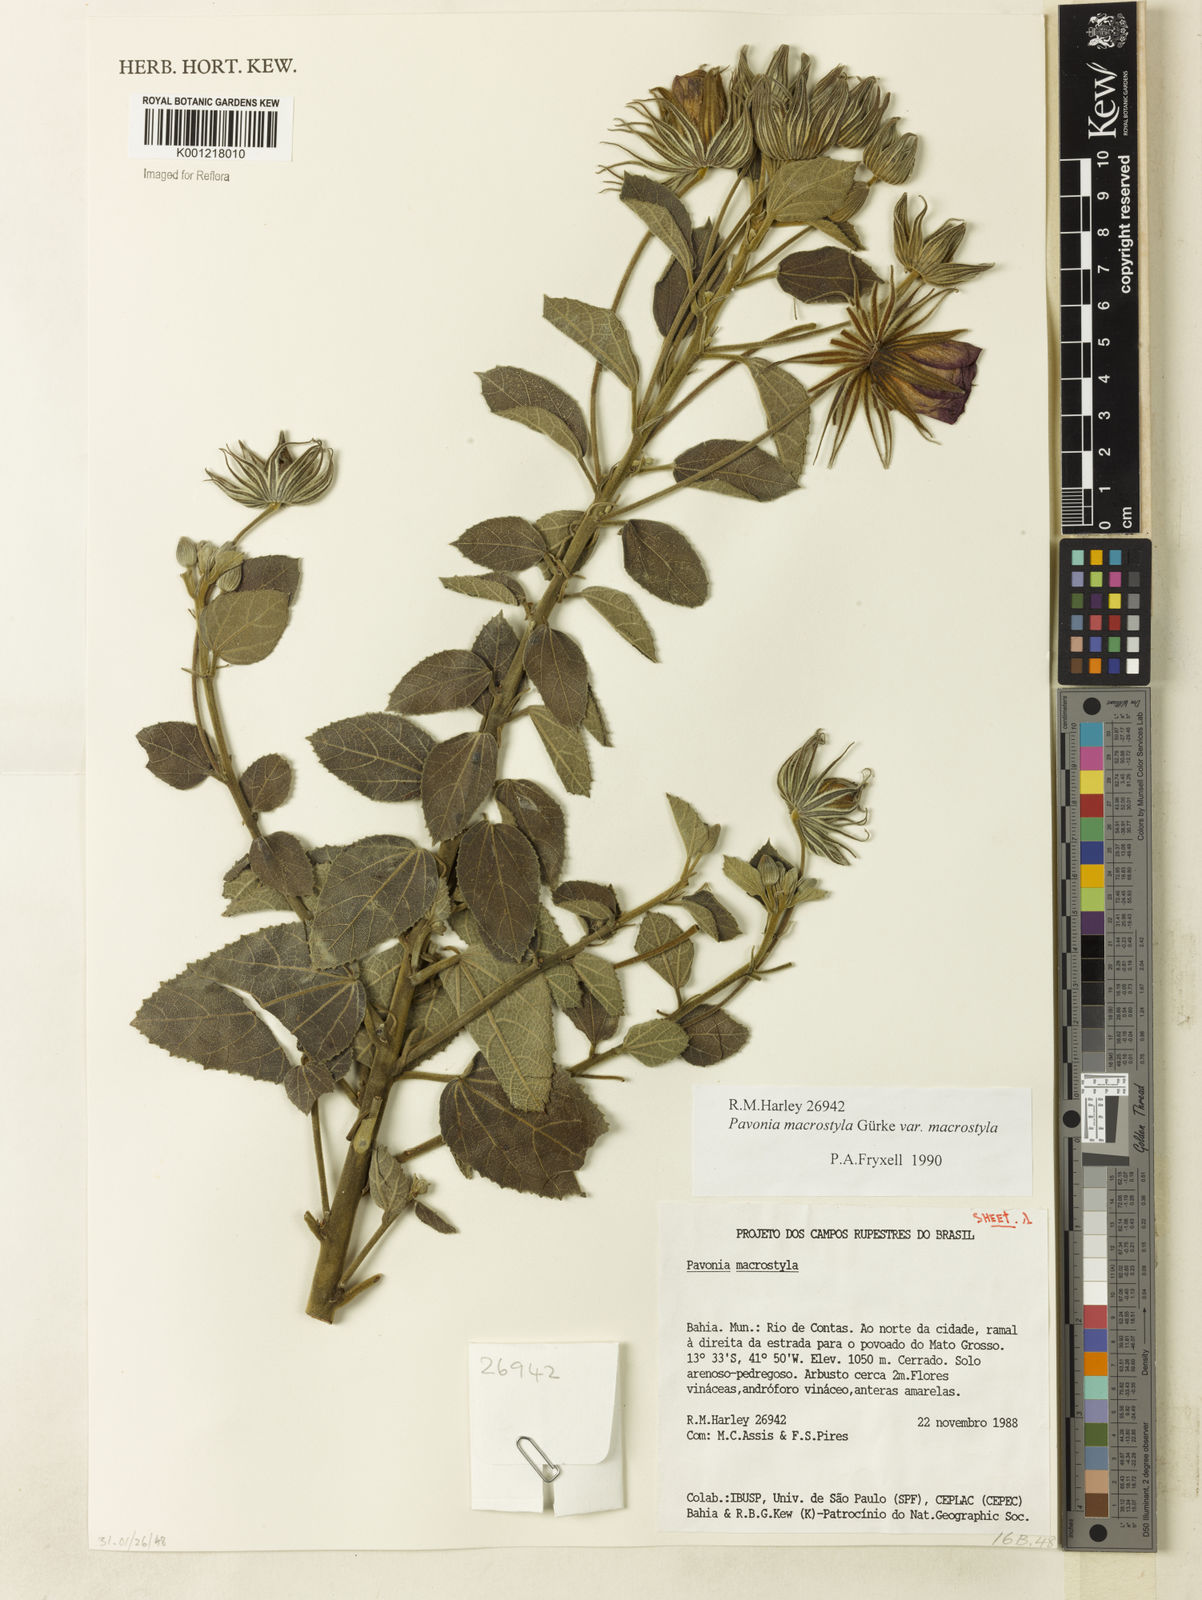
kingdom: Plantae
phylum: Tracheophyta
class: Magnoliopsida
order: Malvales
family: Malvaceae
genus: Pavonia
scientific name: Pavonia macrostyla
